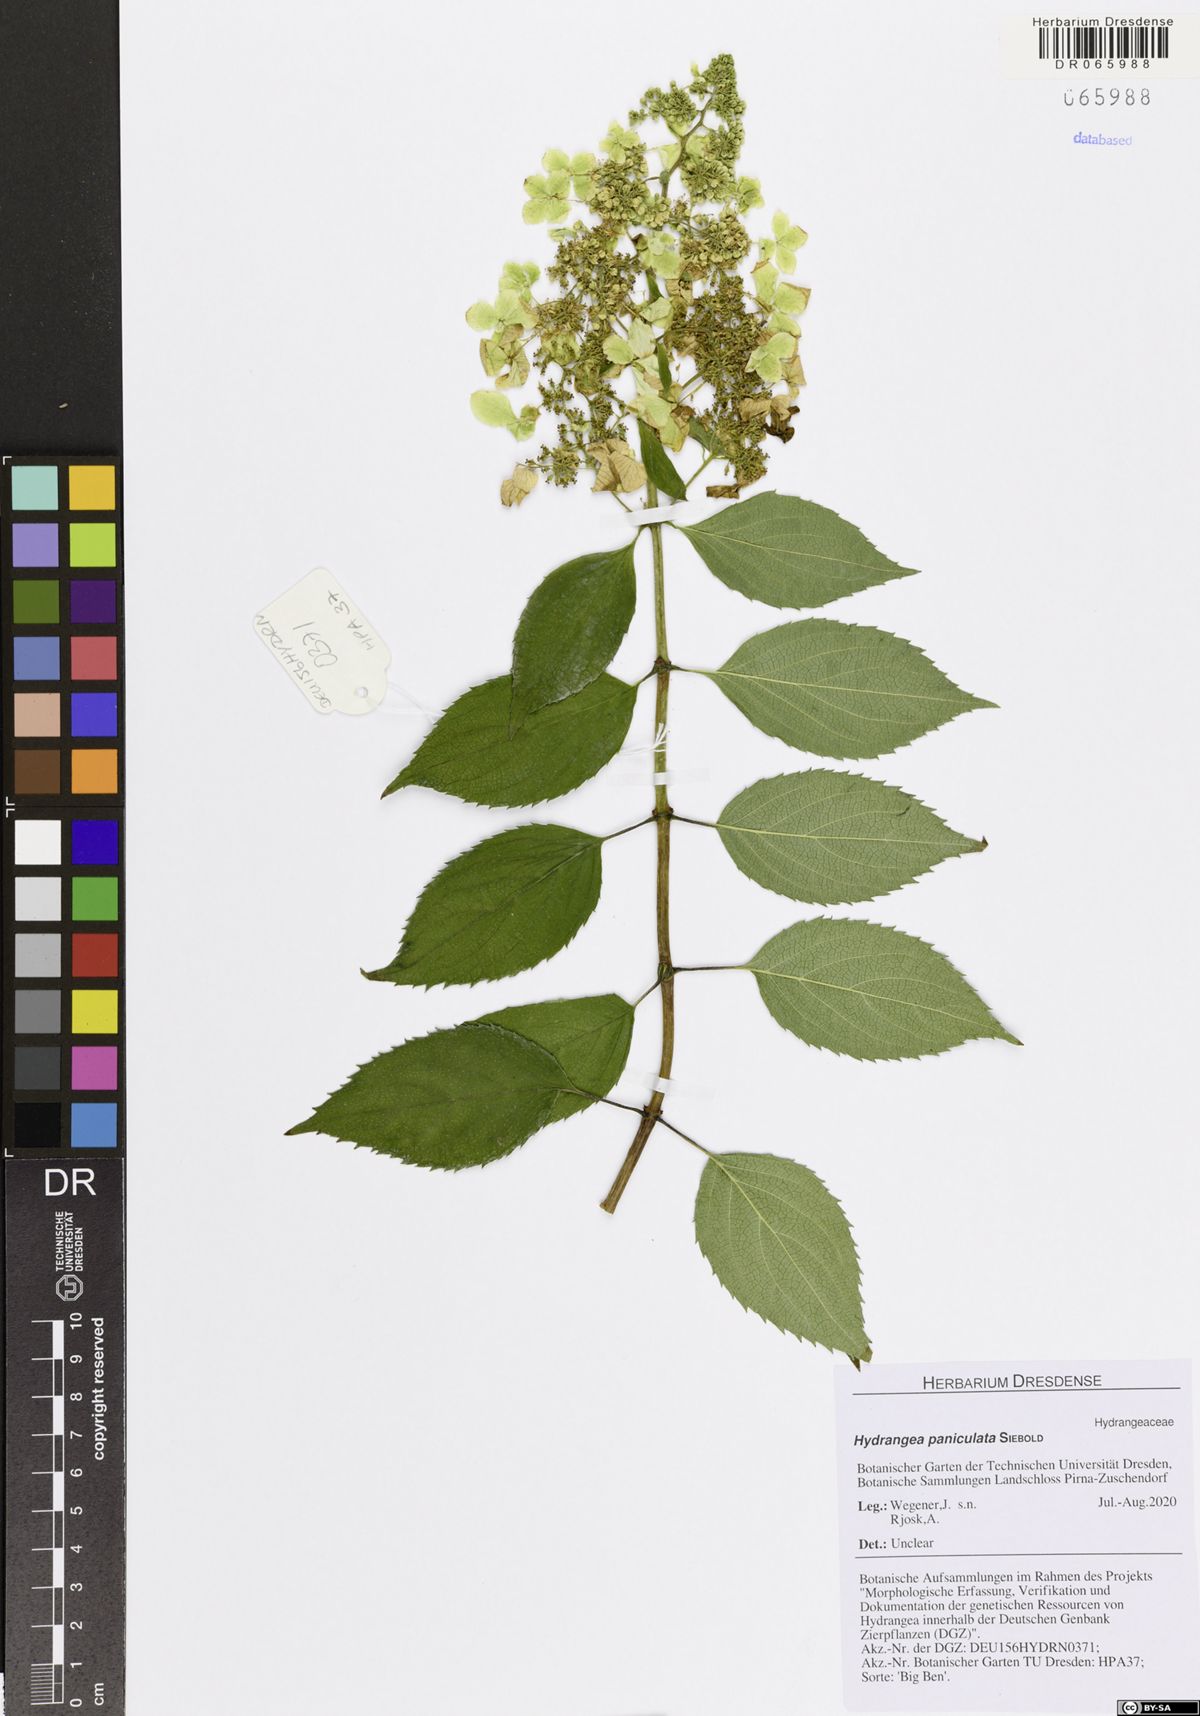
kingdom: Plantae
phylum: Tracheophyta
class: Magnoliopsida
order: Cornales
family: Hydrangeaceae
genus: Hydrangea
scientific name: Hydrangea paniculata
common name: Panicled hydrangea
